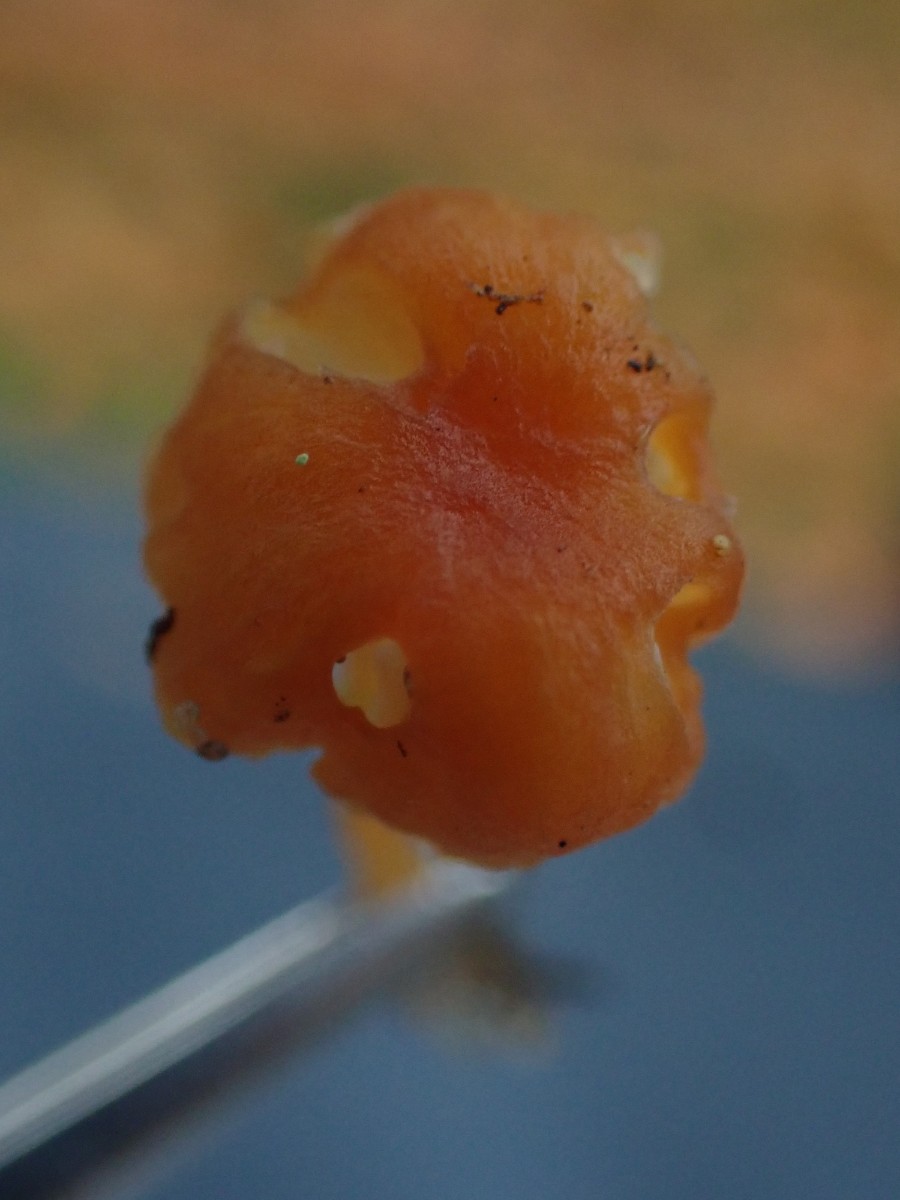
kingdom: Fungi
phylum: Basidiomycota
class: Agaricomycetes
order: Hymenochaetales
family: Rickenellaceae
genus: Rickenella
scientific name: Rickenella fibula
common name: orange mosnavlehat
